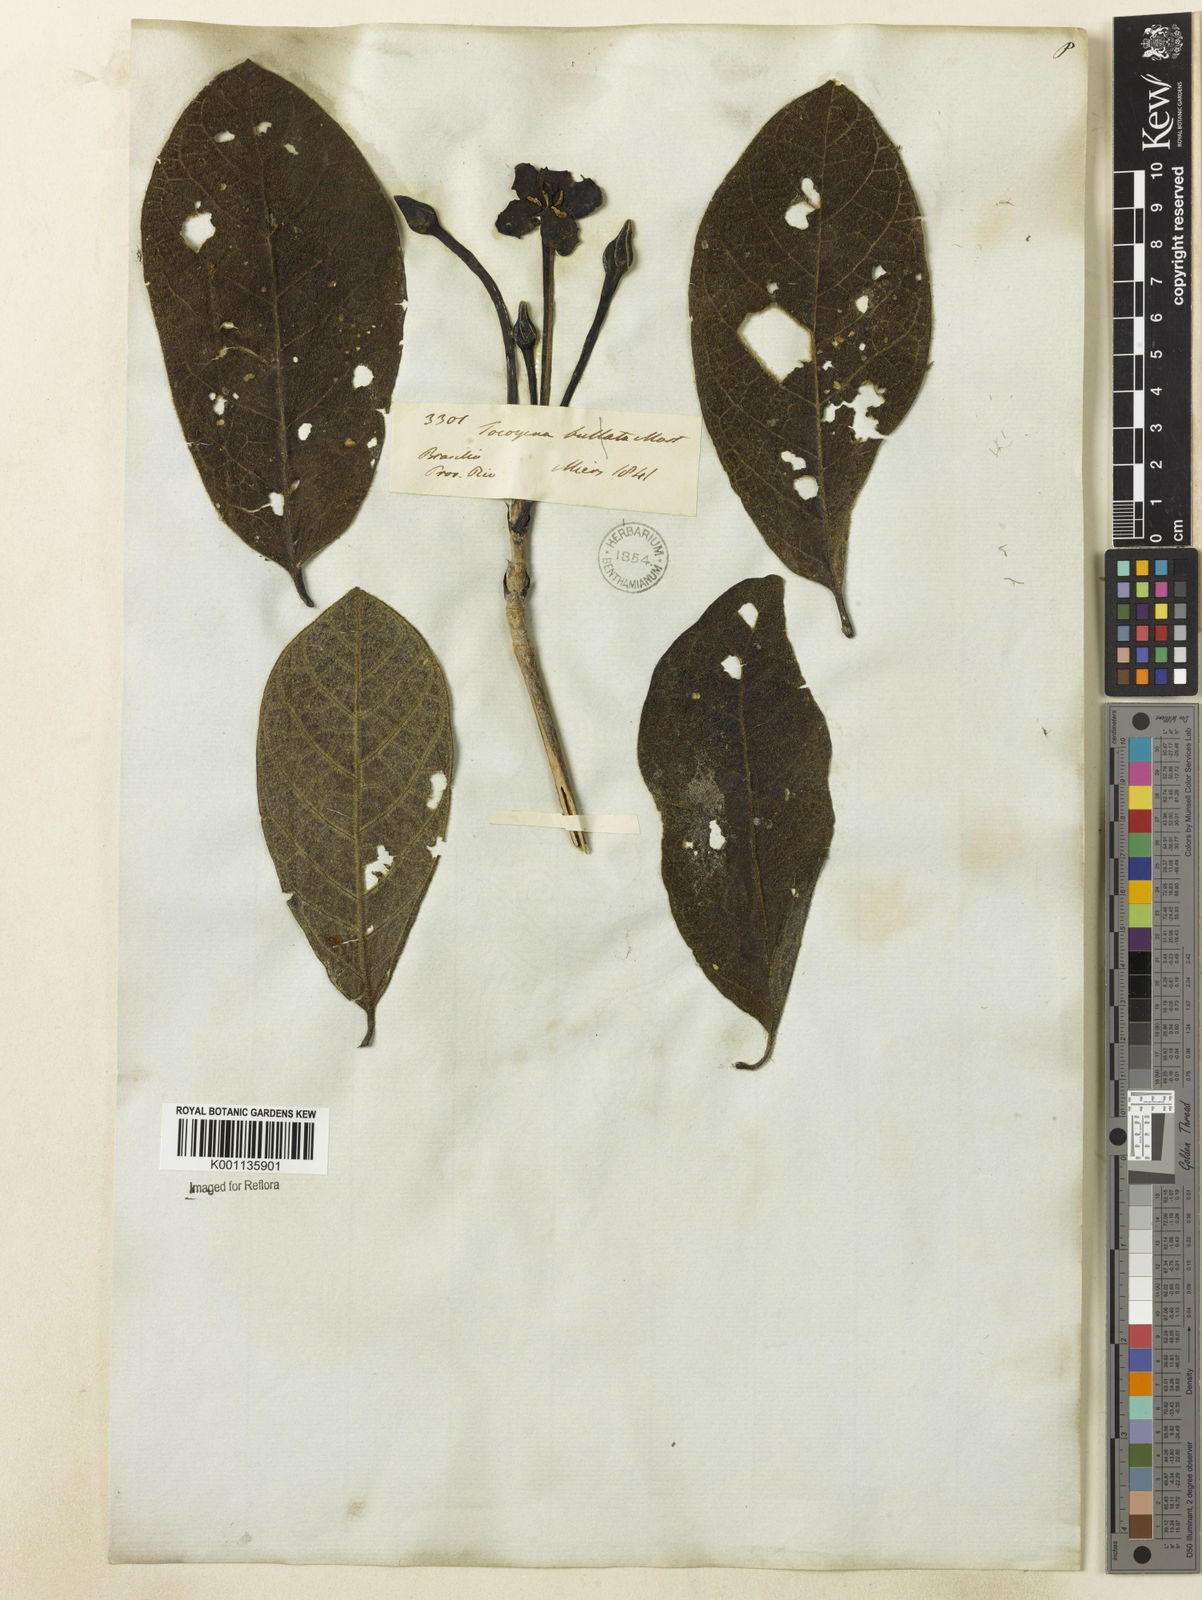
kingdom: Plantae
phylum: Tracheophyta
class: Magnoliopsida
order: Gentianales
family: Rubiaceae
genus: Tocoyena
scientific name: Tocoyena bullata
